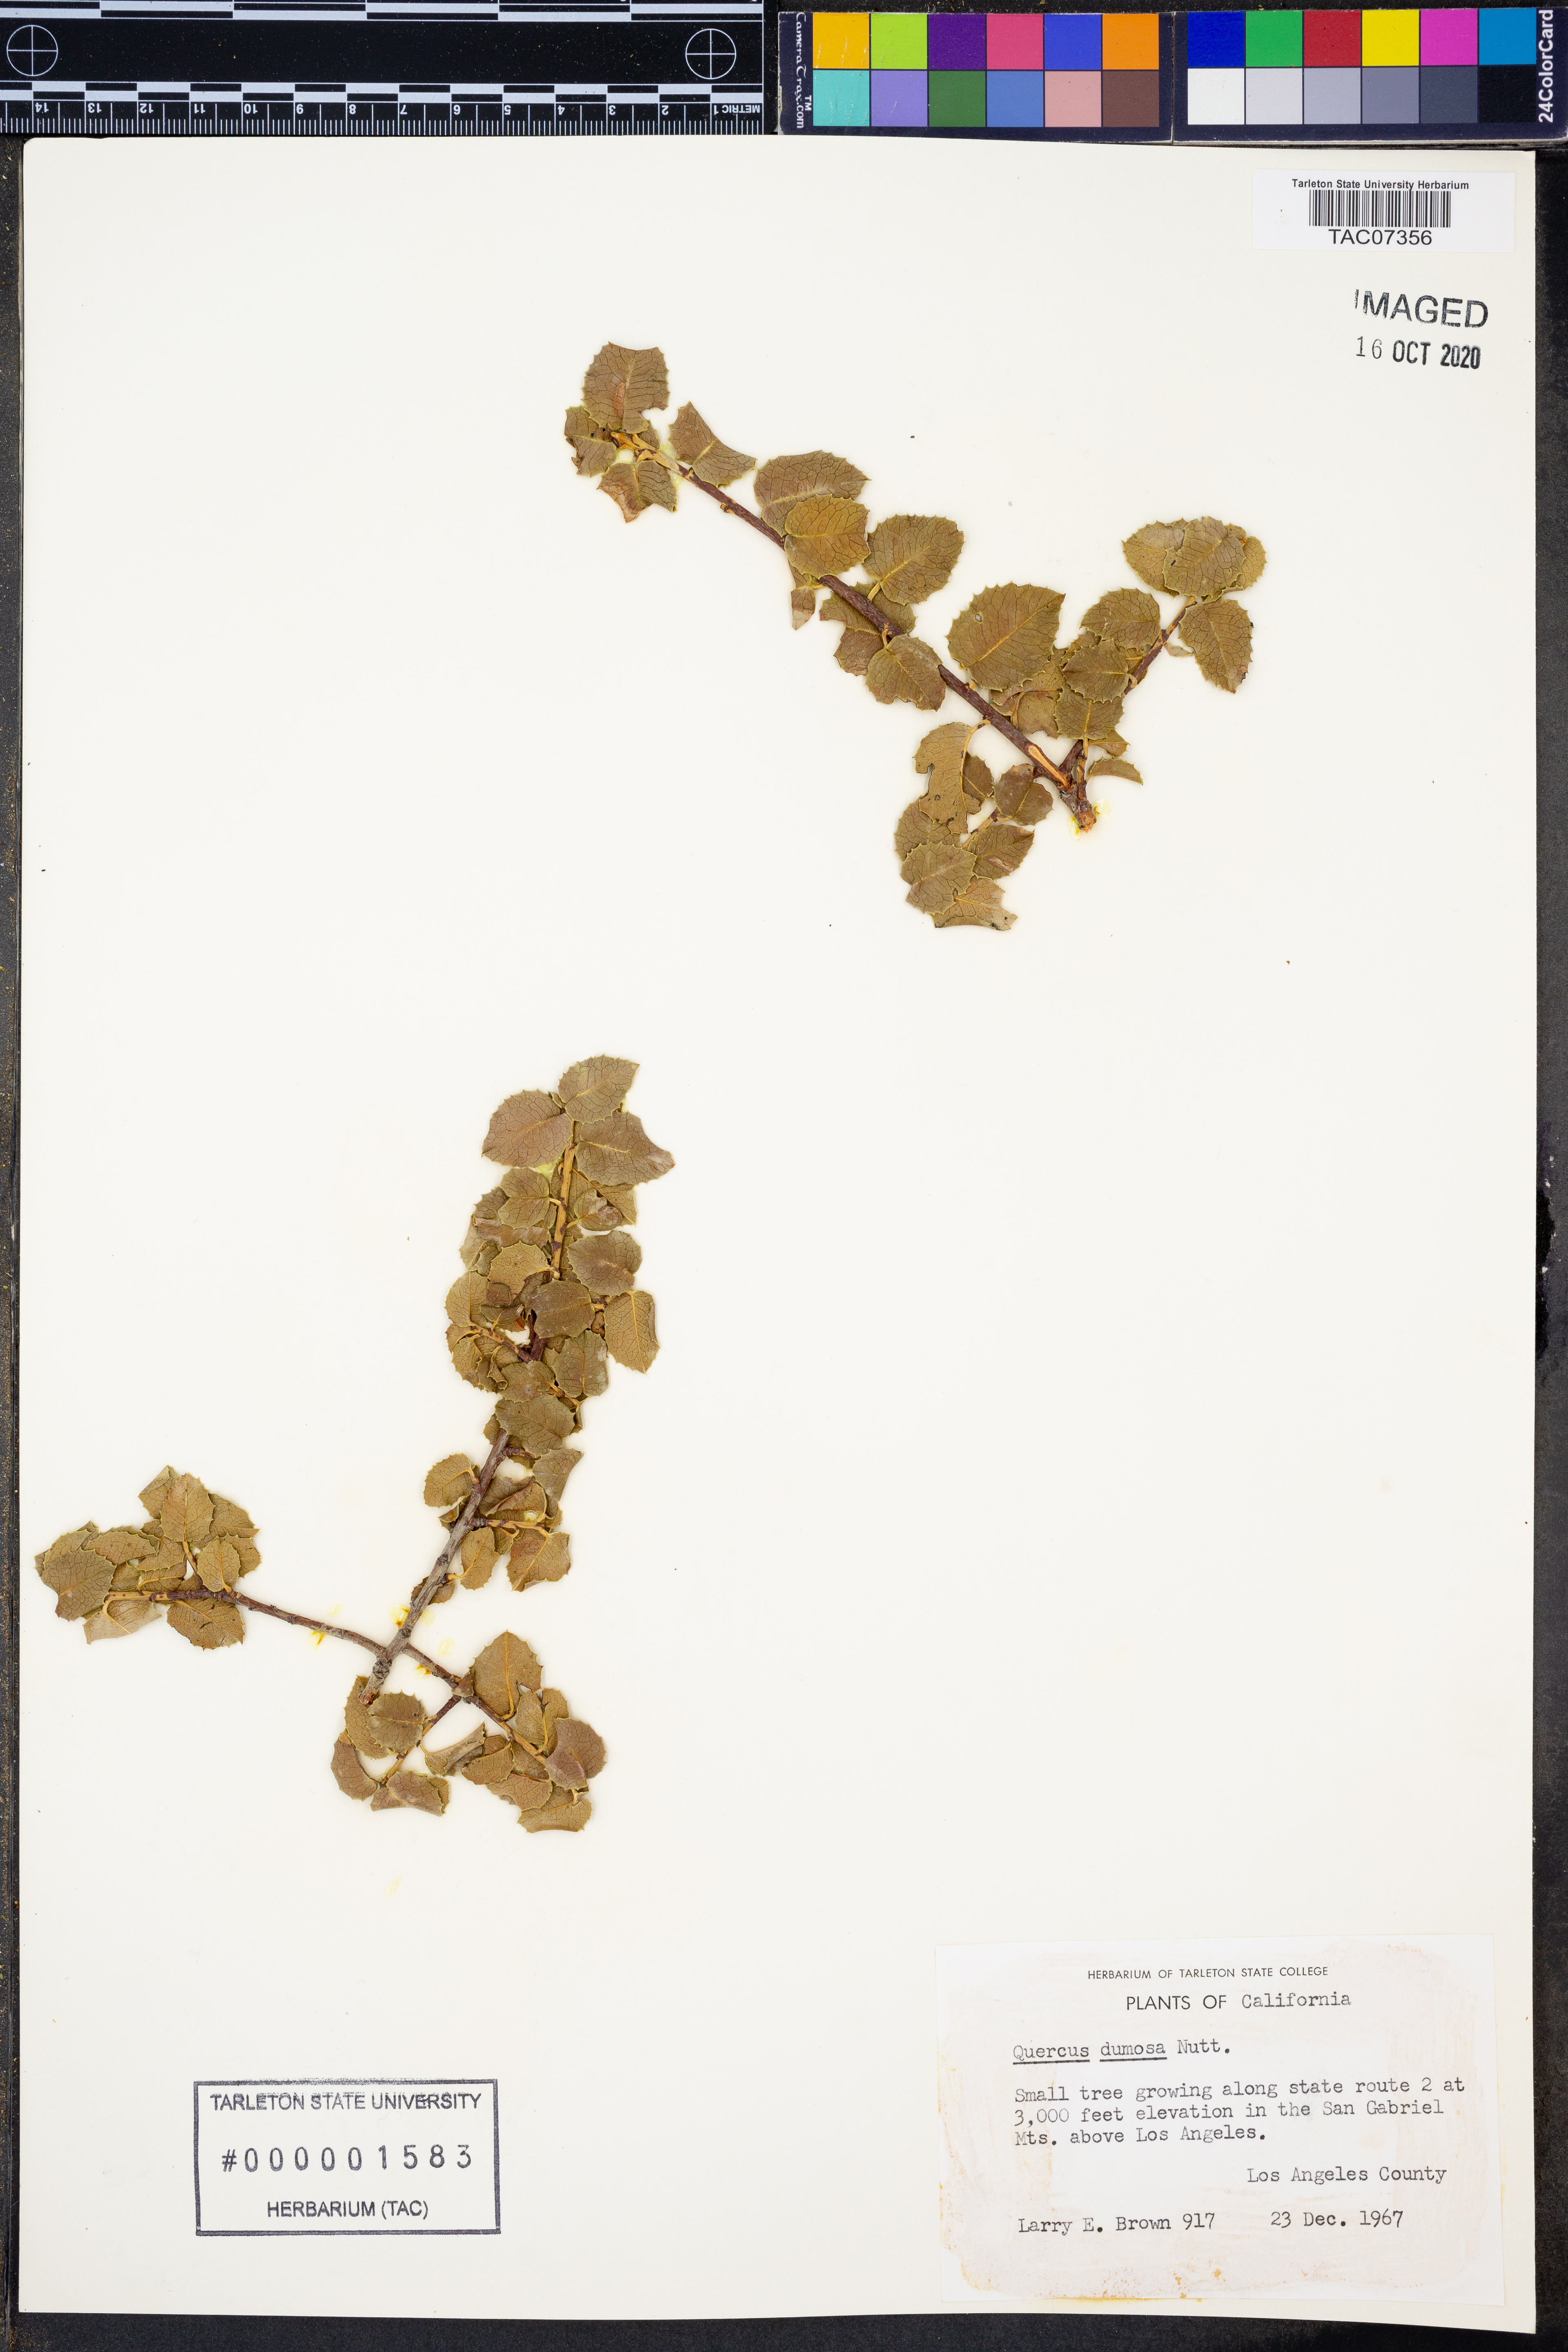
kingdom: Plantae
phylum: Tracheophyta
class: Magnoliopsida
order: Fagales
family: Fagaceae
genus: Quercus
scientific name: Quercus dumosa
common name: Coastal sage scrub oak
